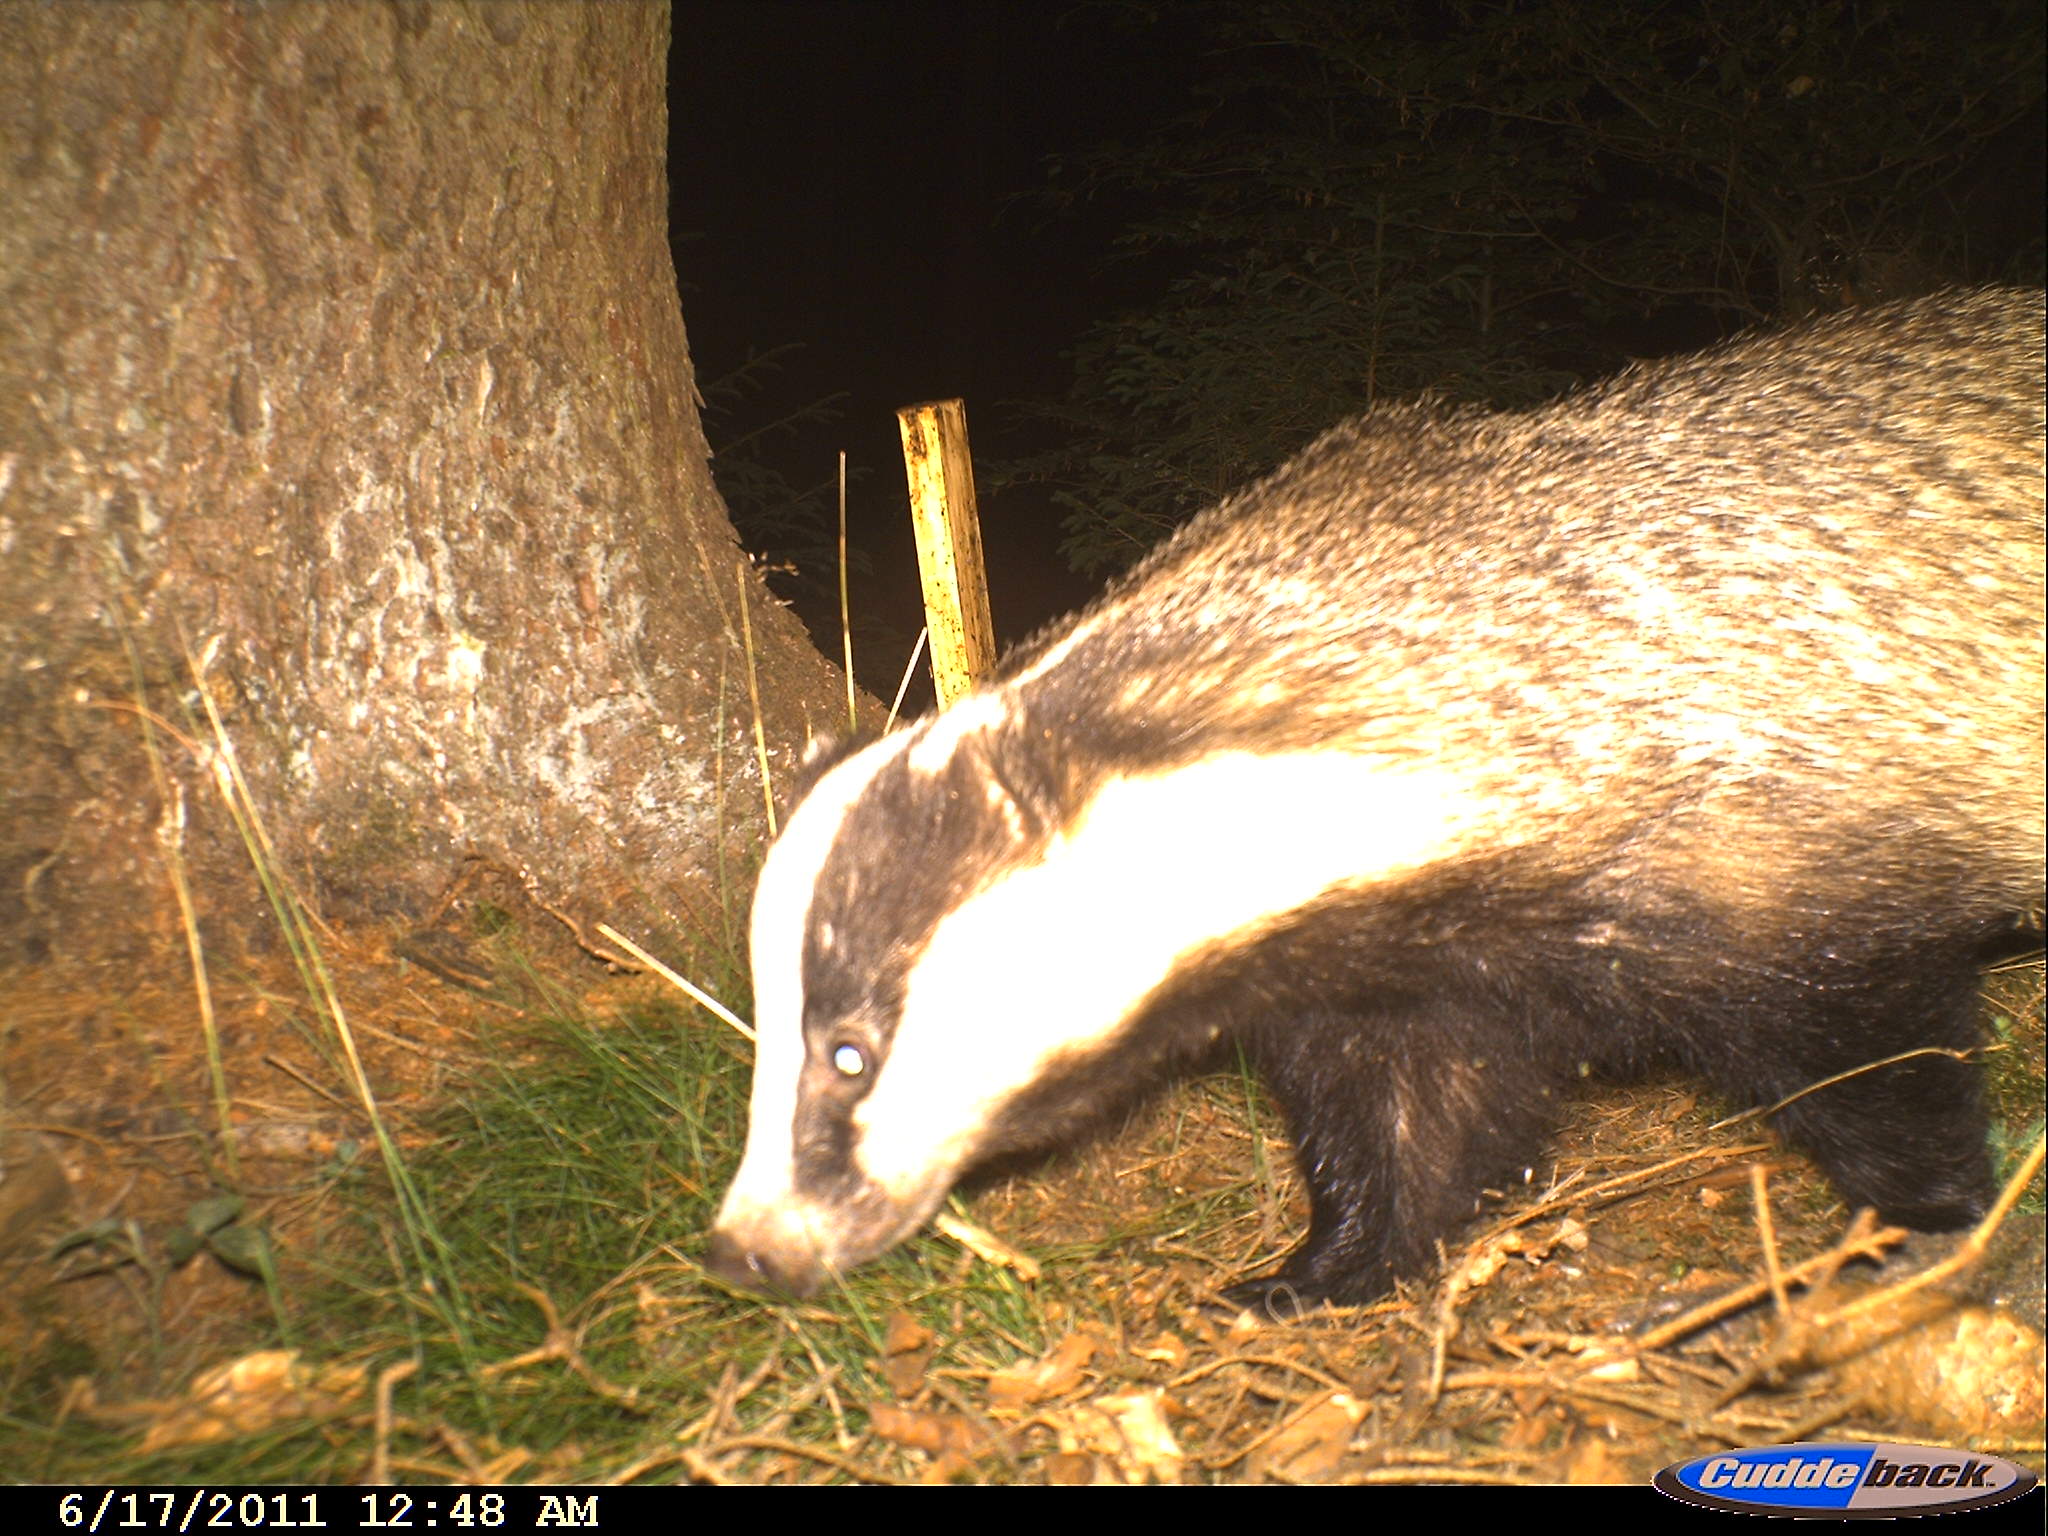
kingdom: Animalia
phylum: Chordata
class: Mammalia
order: Carnivora
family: Mustelidae
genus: Meles
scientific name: Meles meles
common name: Eurasian badger
